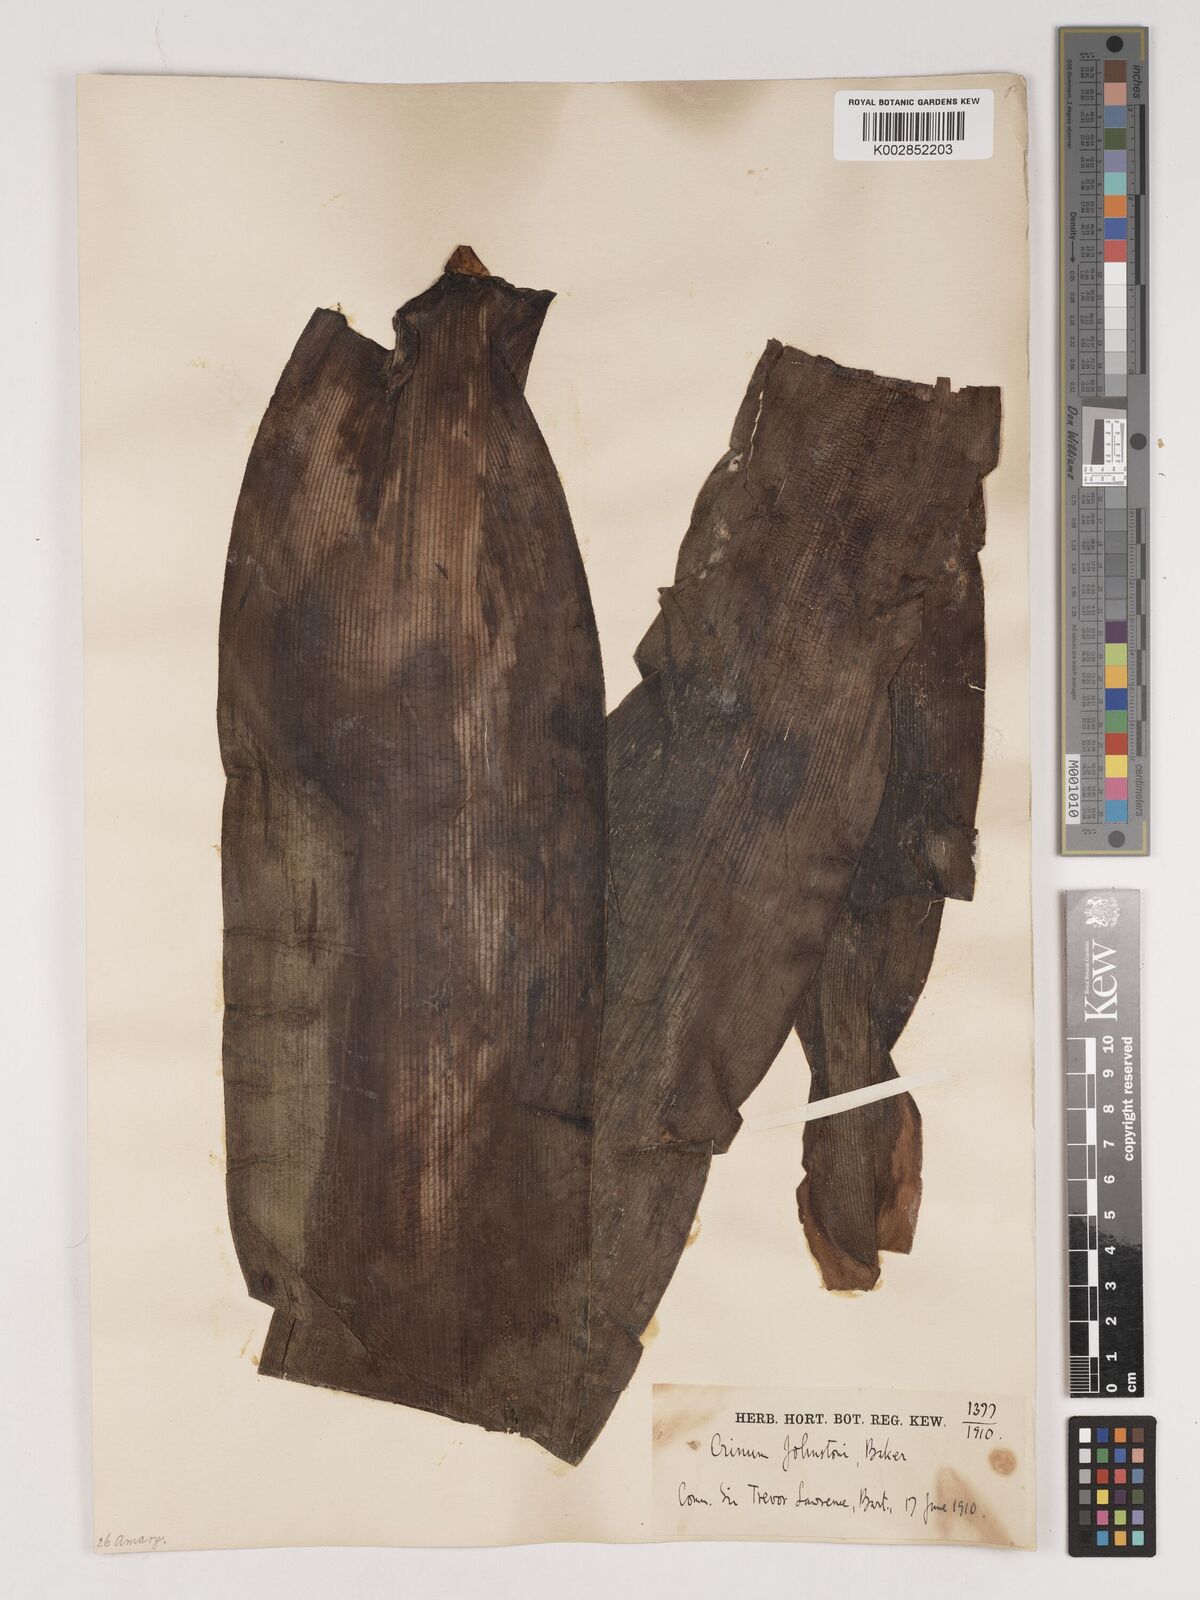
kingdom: Plantae
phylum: Tracheophyta
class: Liliopsida
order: Asparagales
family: Amaryllidaceae
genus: Crinum
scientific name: Crinum macowanii
